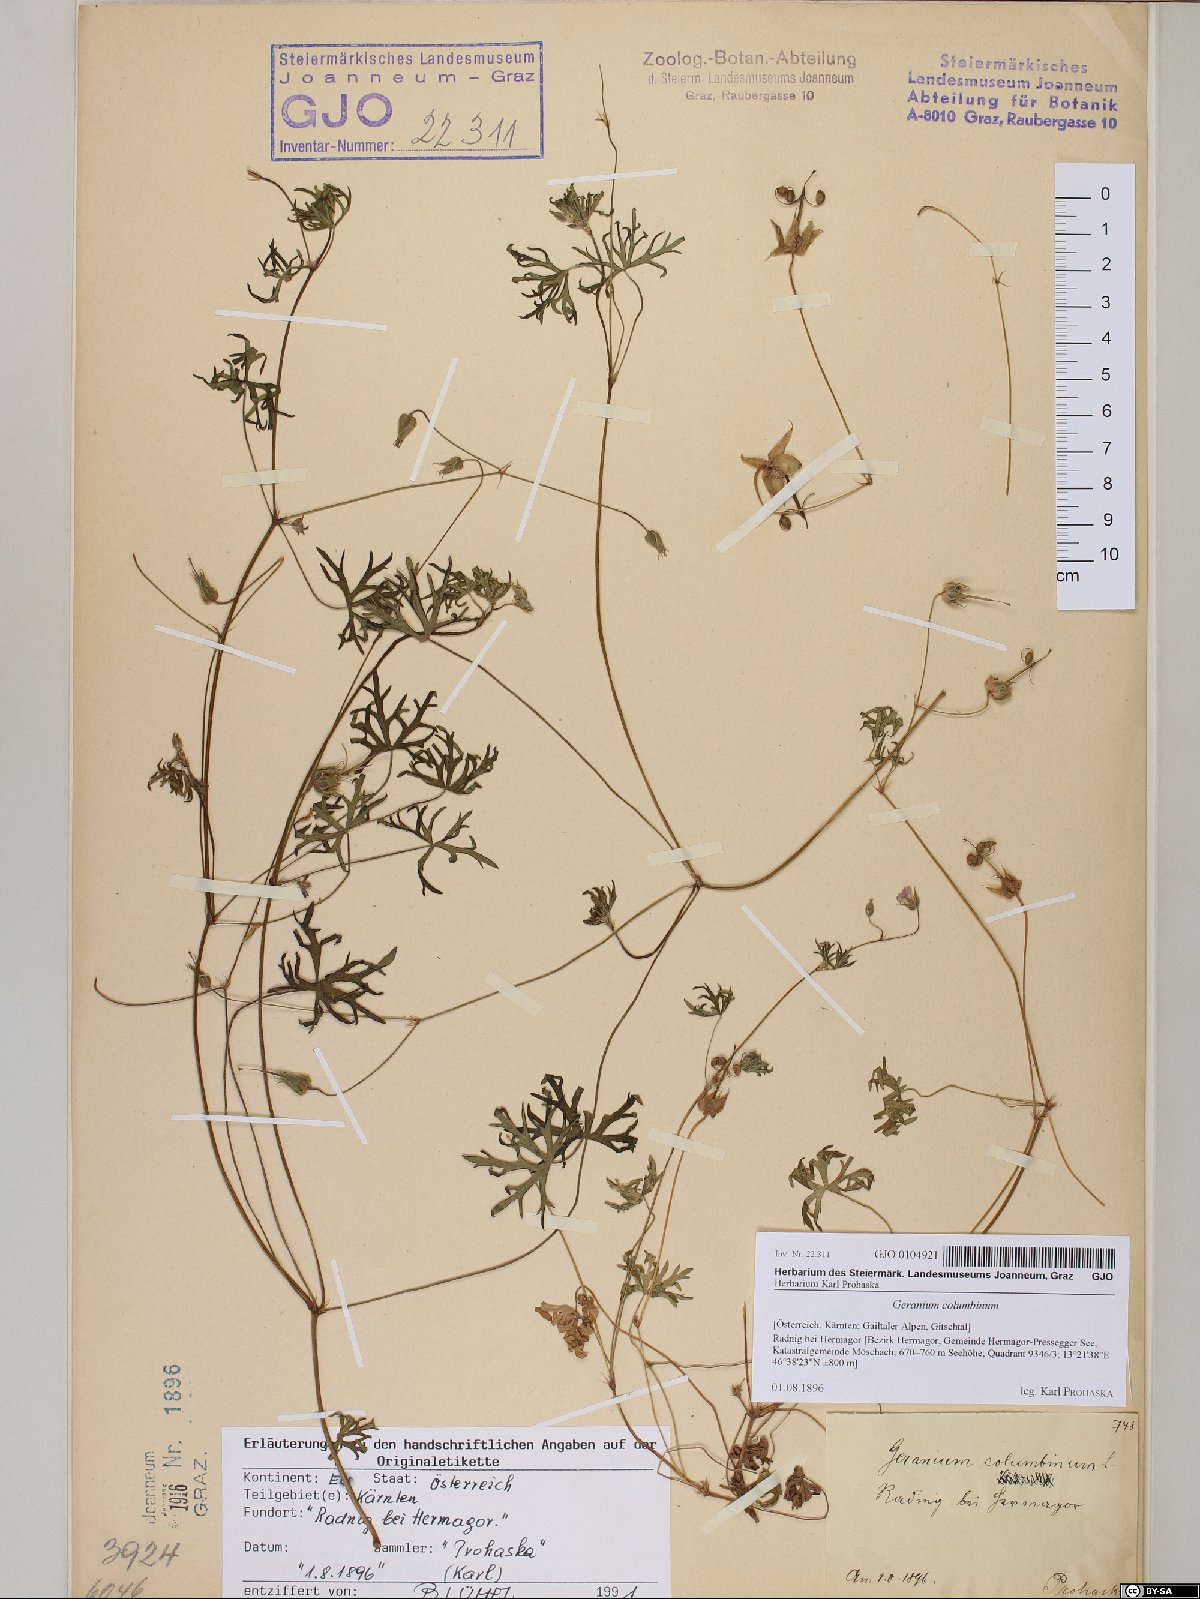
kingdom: Plantae
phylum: Tracheophyta
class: Magnoliopsida
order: Geraniales
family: Geraniaceae
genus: Geranium
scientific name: Geranium columbinum
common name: Long-stalked crane's-bill
